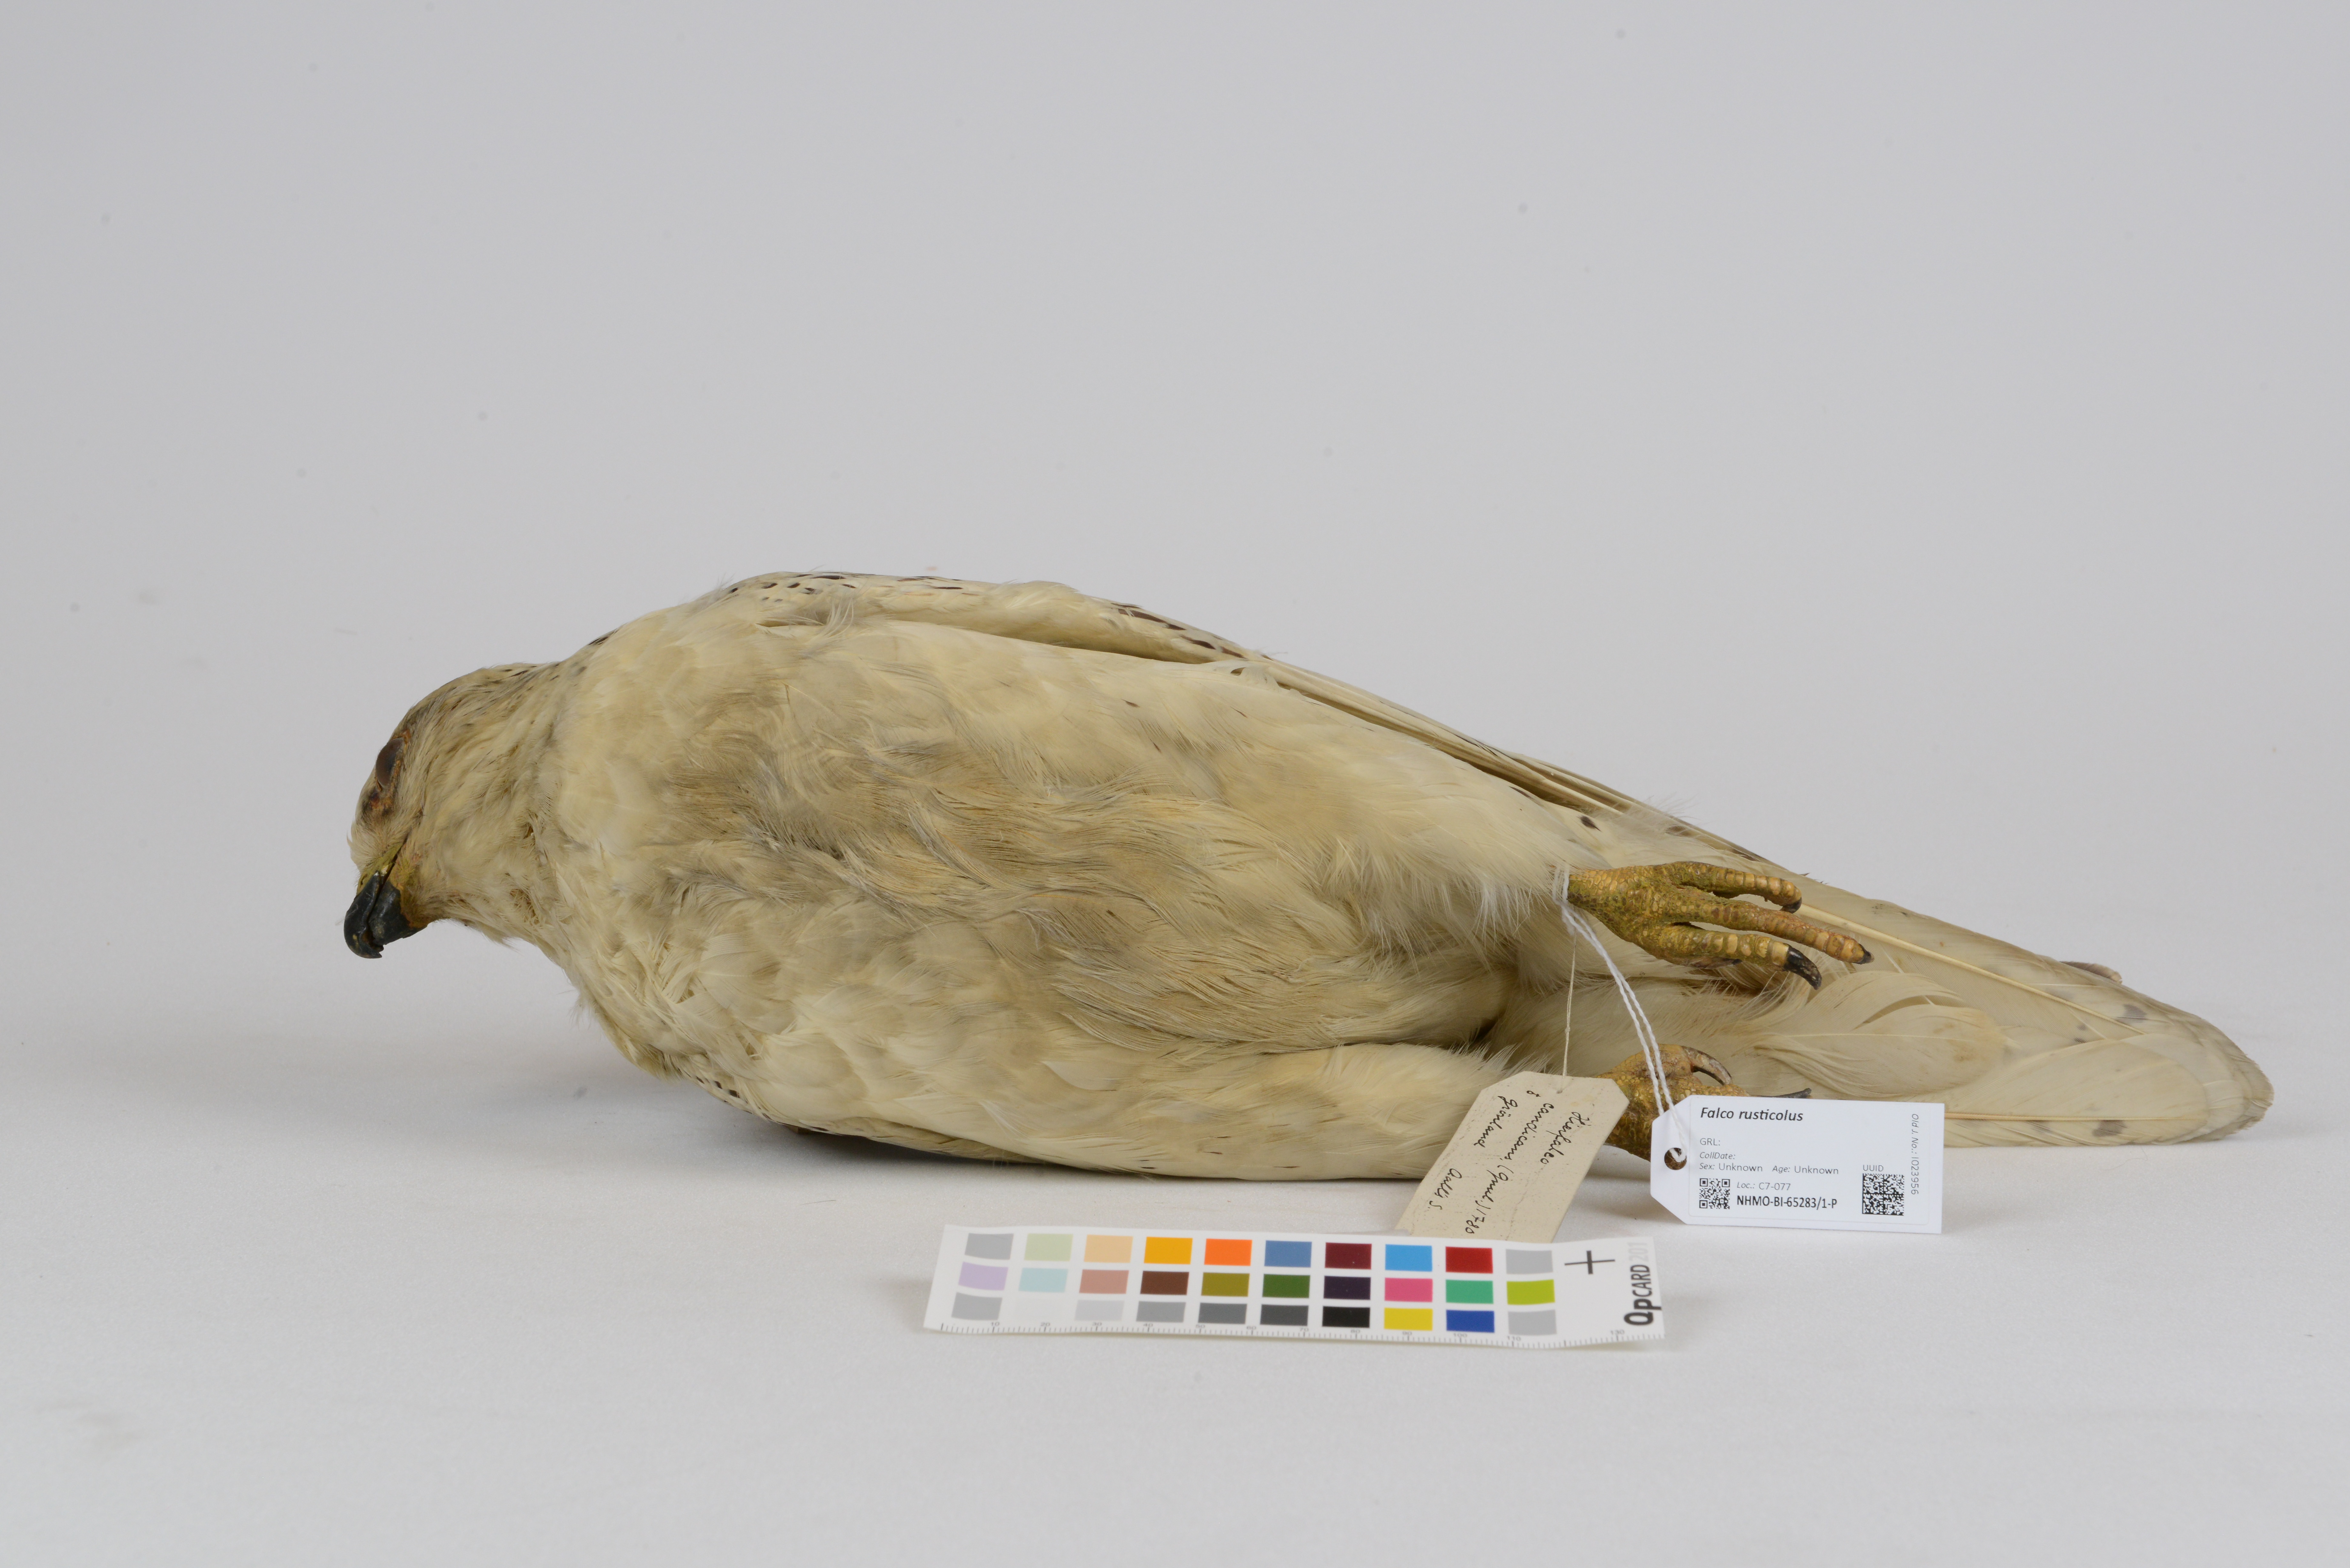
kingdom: Animalia
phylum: Chordata
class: Aves
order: Falconiformes
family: Falconidae
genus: Falco
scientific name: Falco rusticolus
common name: Gyrfalcon
